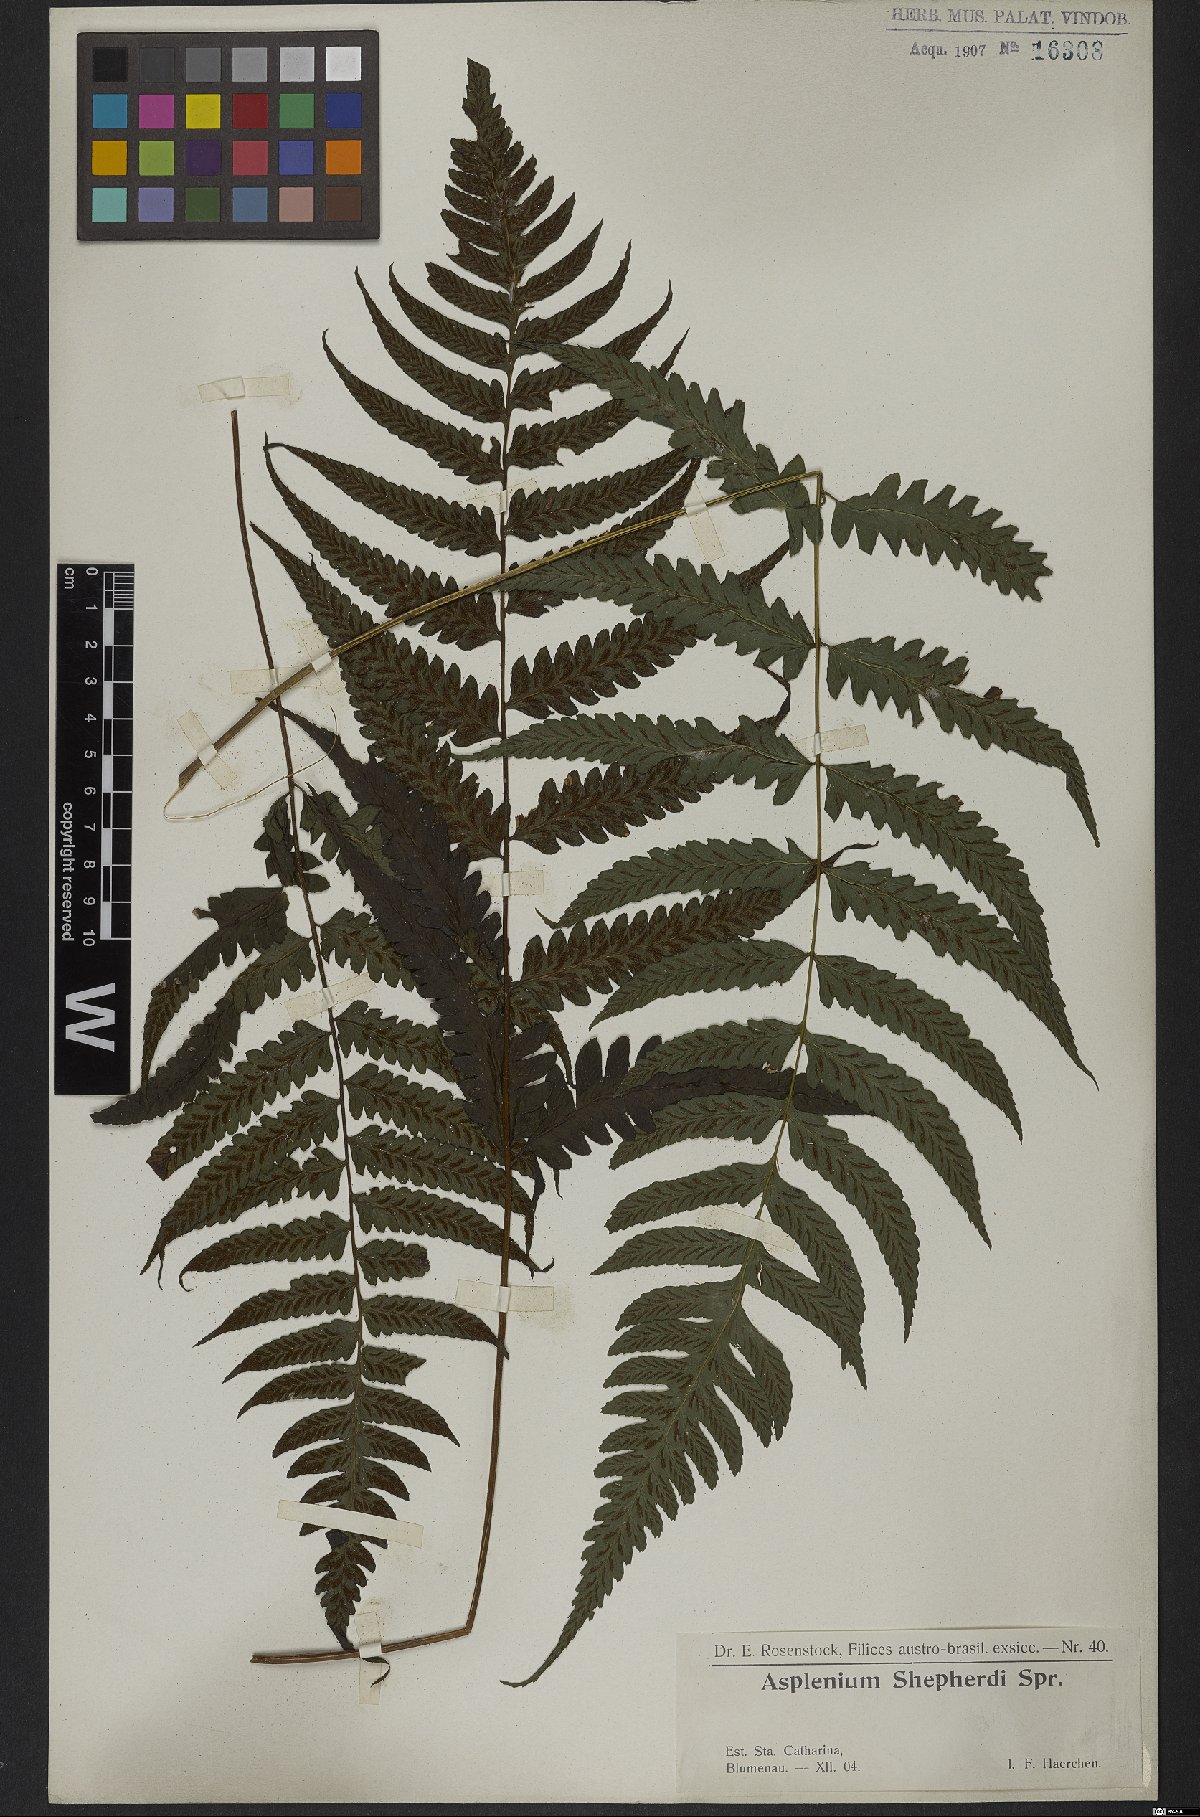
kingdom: Plantae
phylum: Tracheophyta
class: Polypodiopsida
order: Polypodiales
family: Athyriaceae
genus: Diplazium
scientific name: Diplazium cristatum
